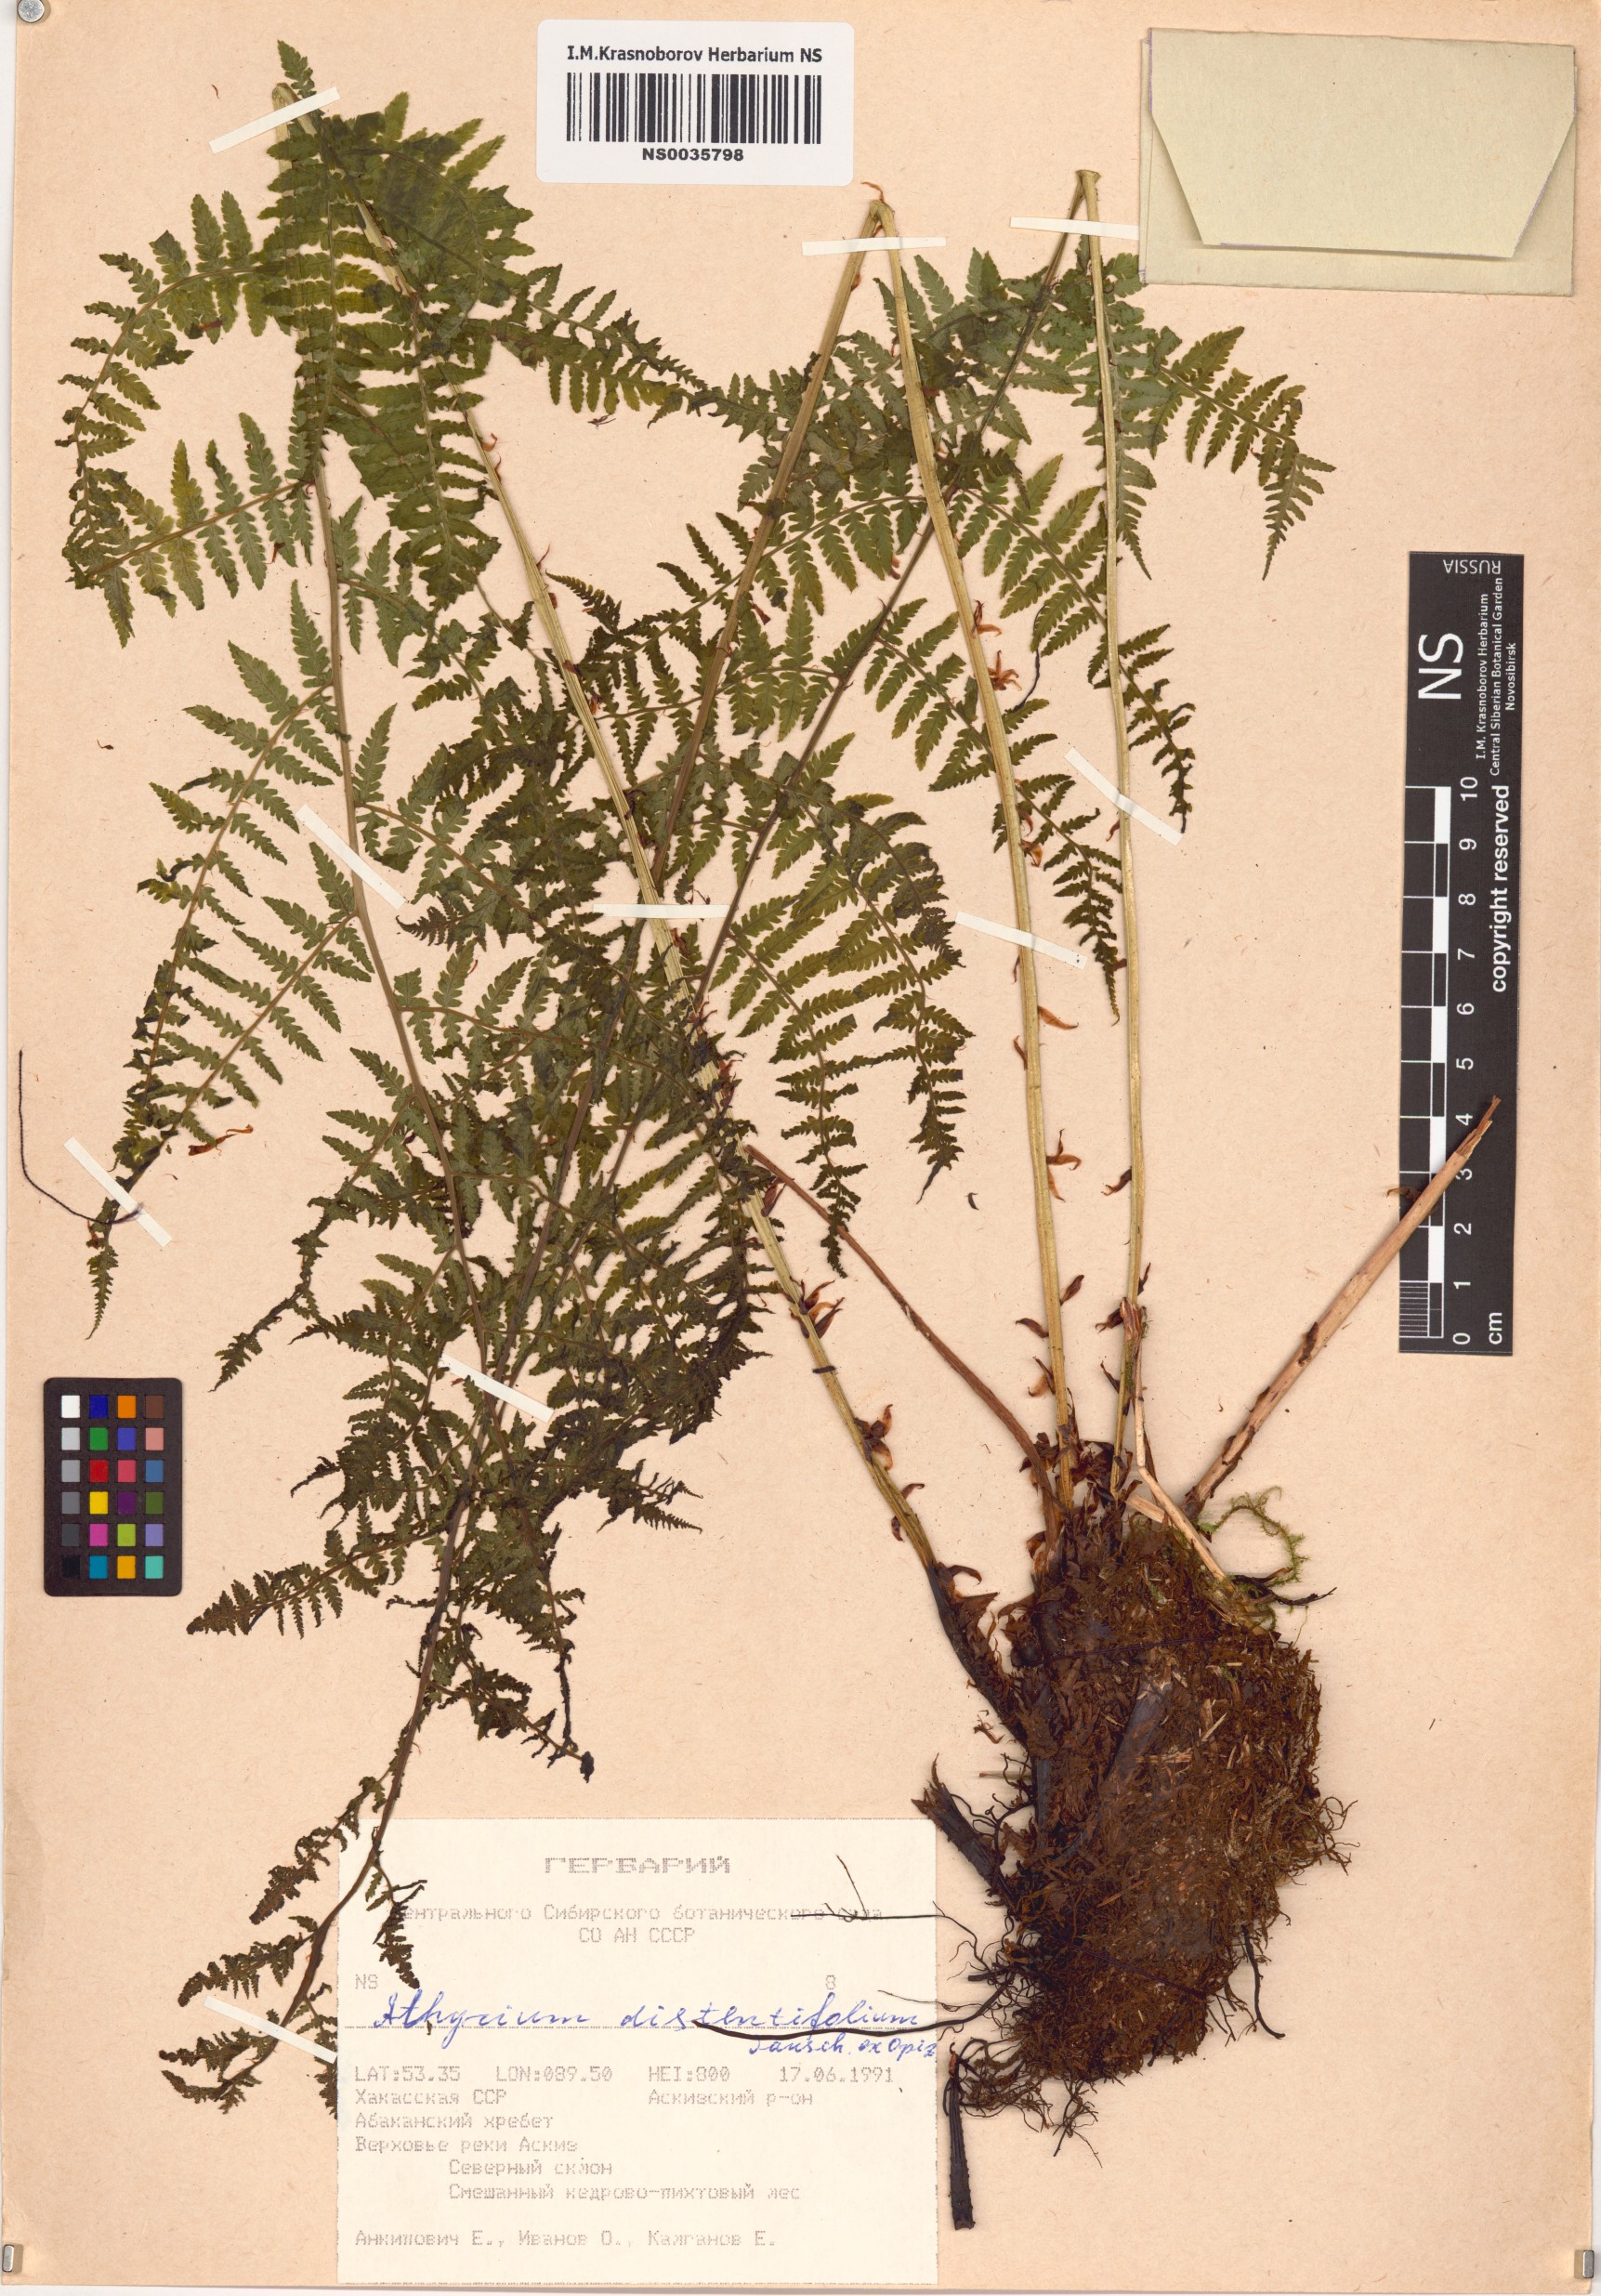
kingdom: Plantae
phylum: Tracheophyta
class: Polypodiopsida
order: Polypodiales
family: Athyriaceae
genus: Pseudathyrium
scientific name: Pseudathyrium alpestre
